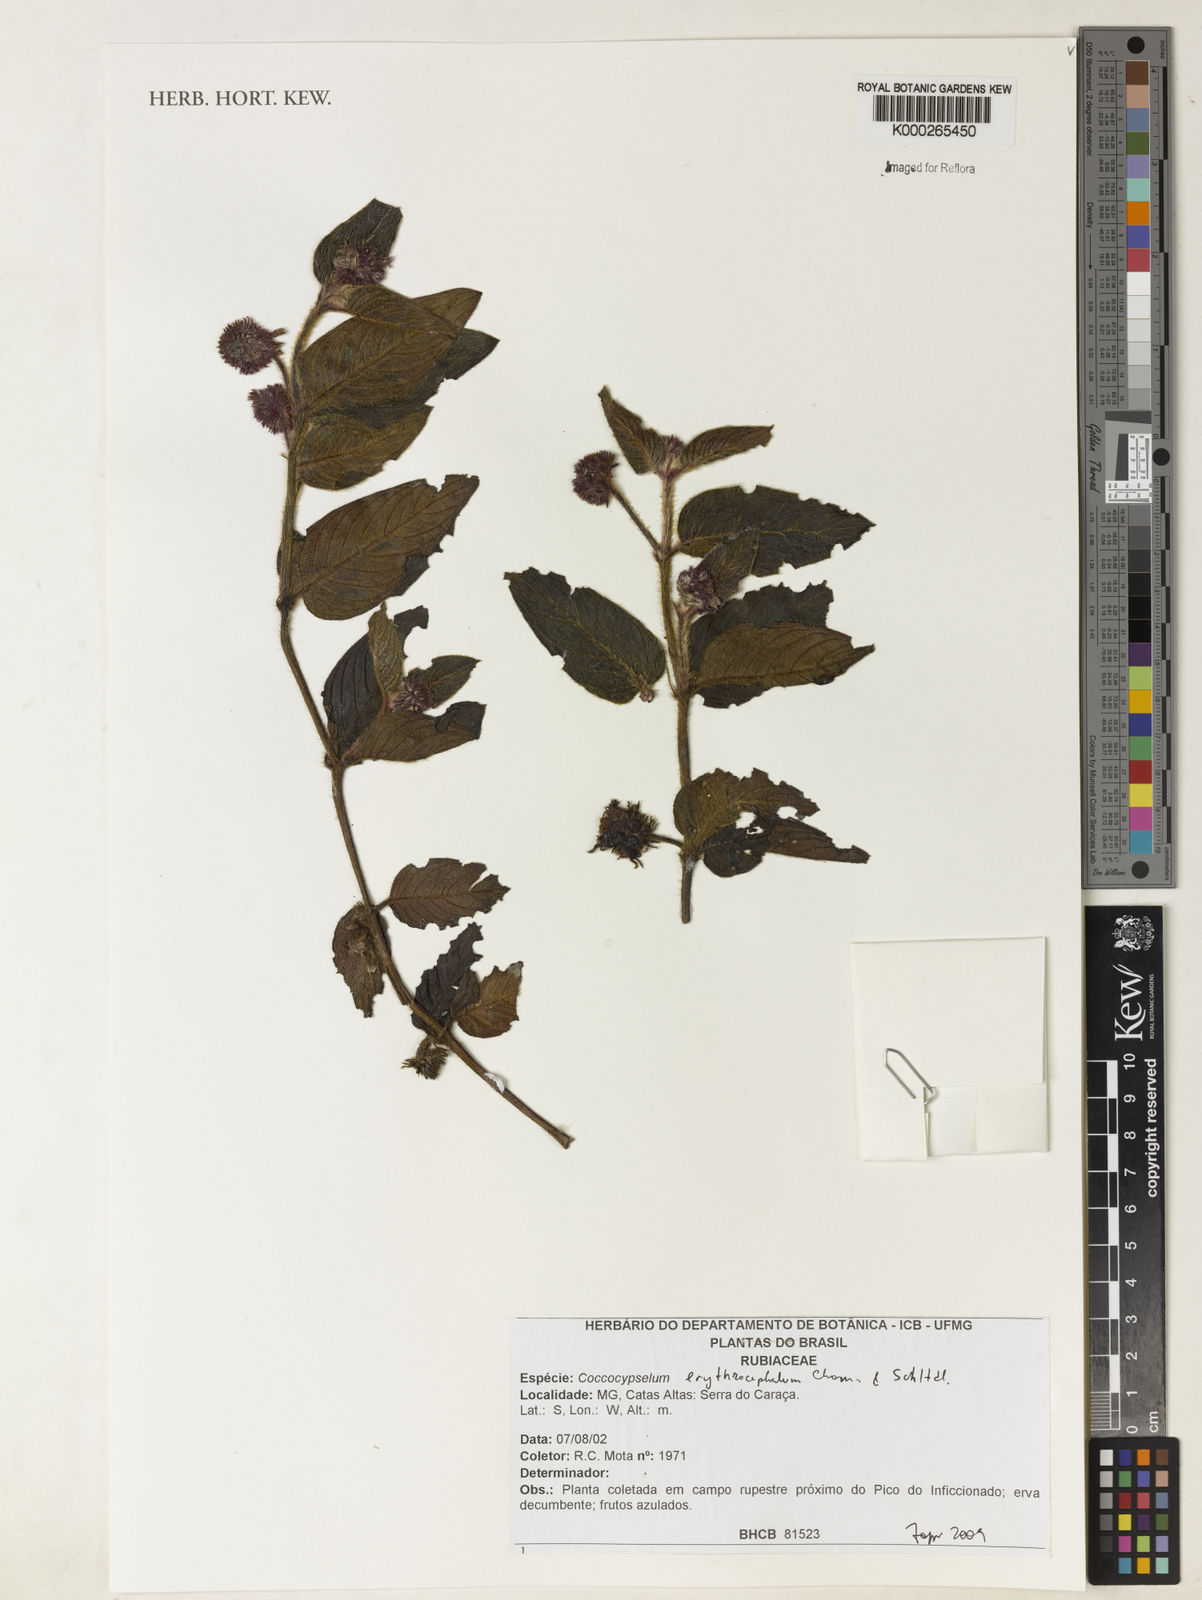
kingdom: Plantae
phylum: Tracheophyta
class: Magnoliopsida
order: Gentianales
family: Rubiaceae
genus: Coccocypselum
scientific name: Coccocypselum erythrocephalum
